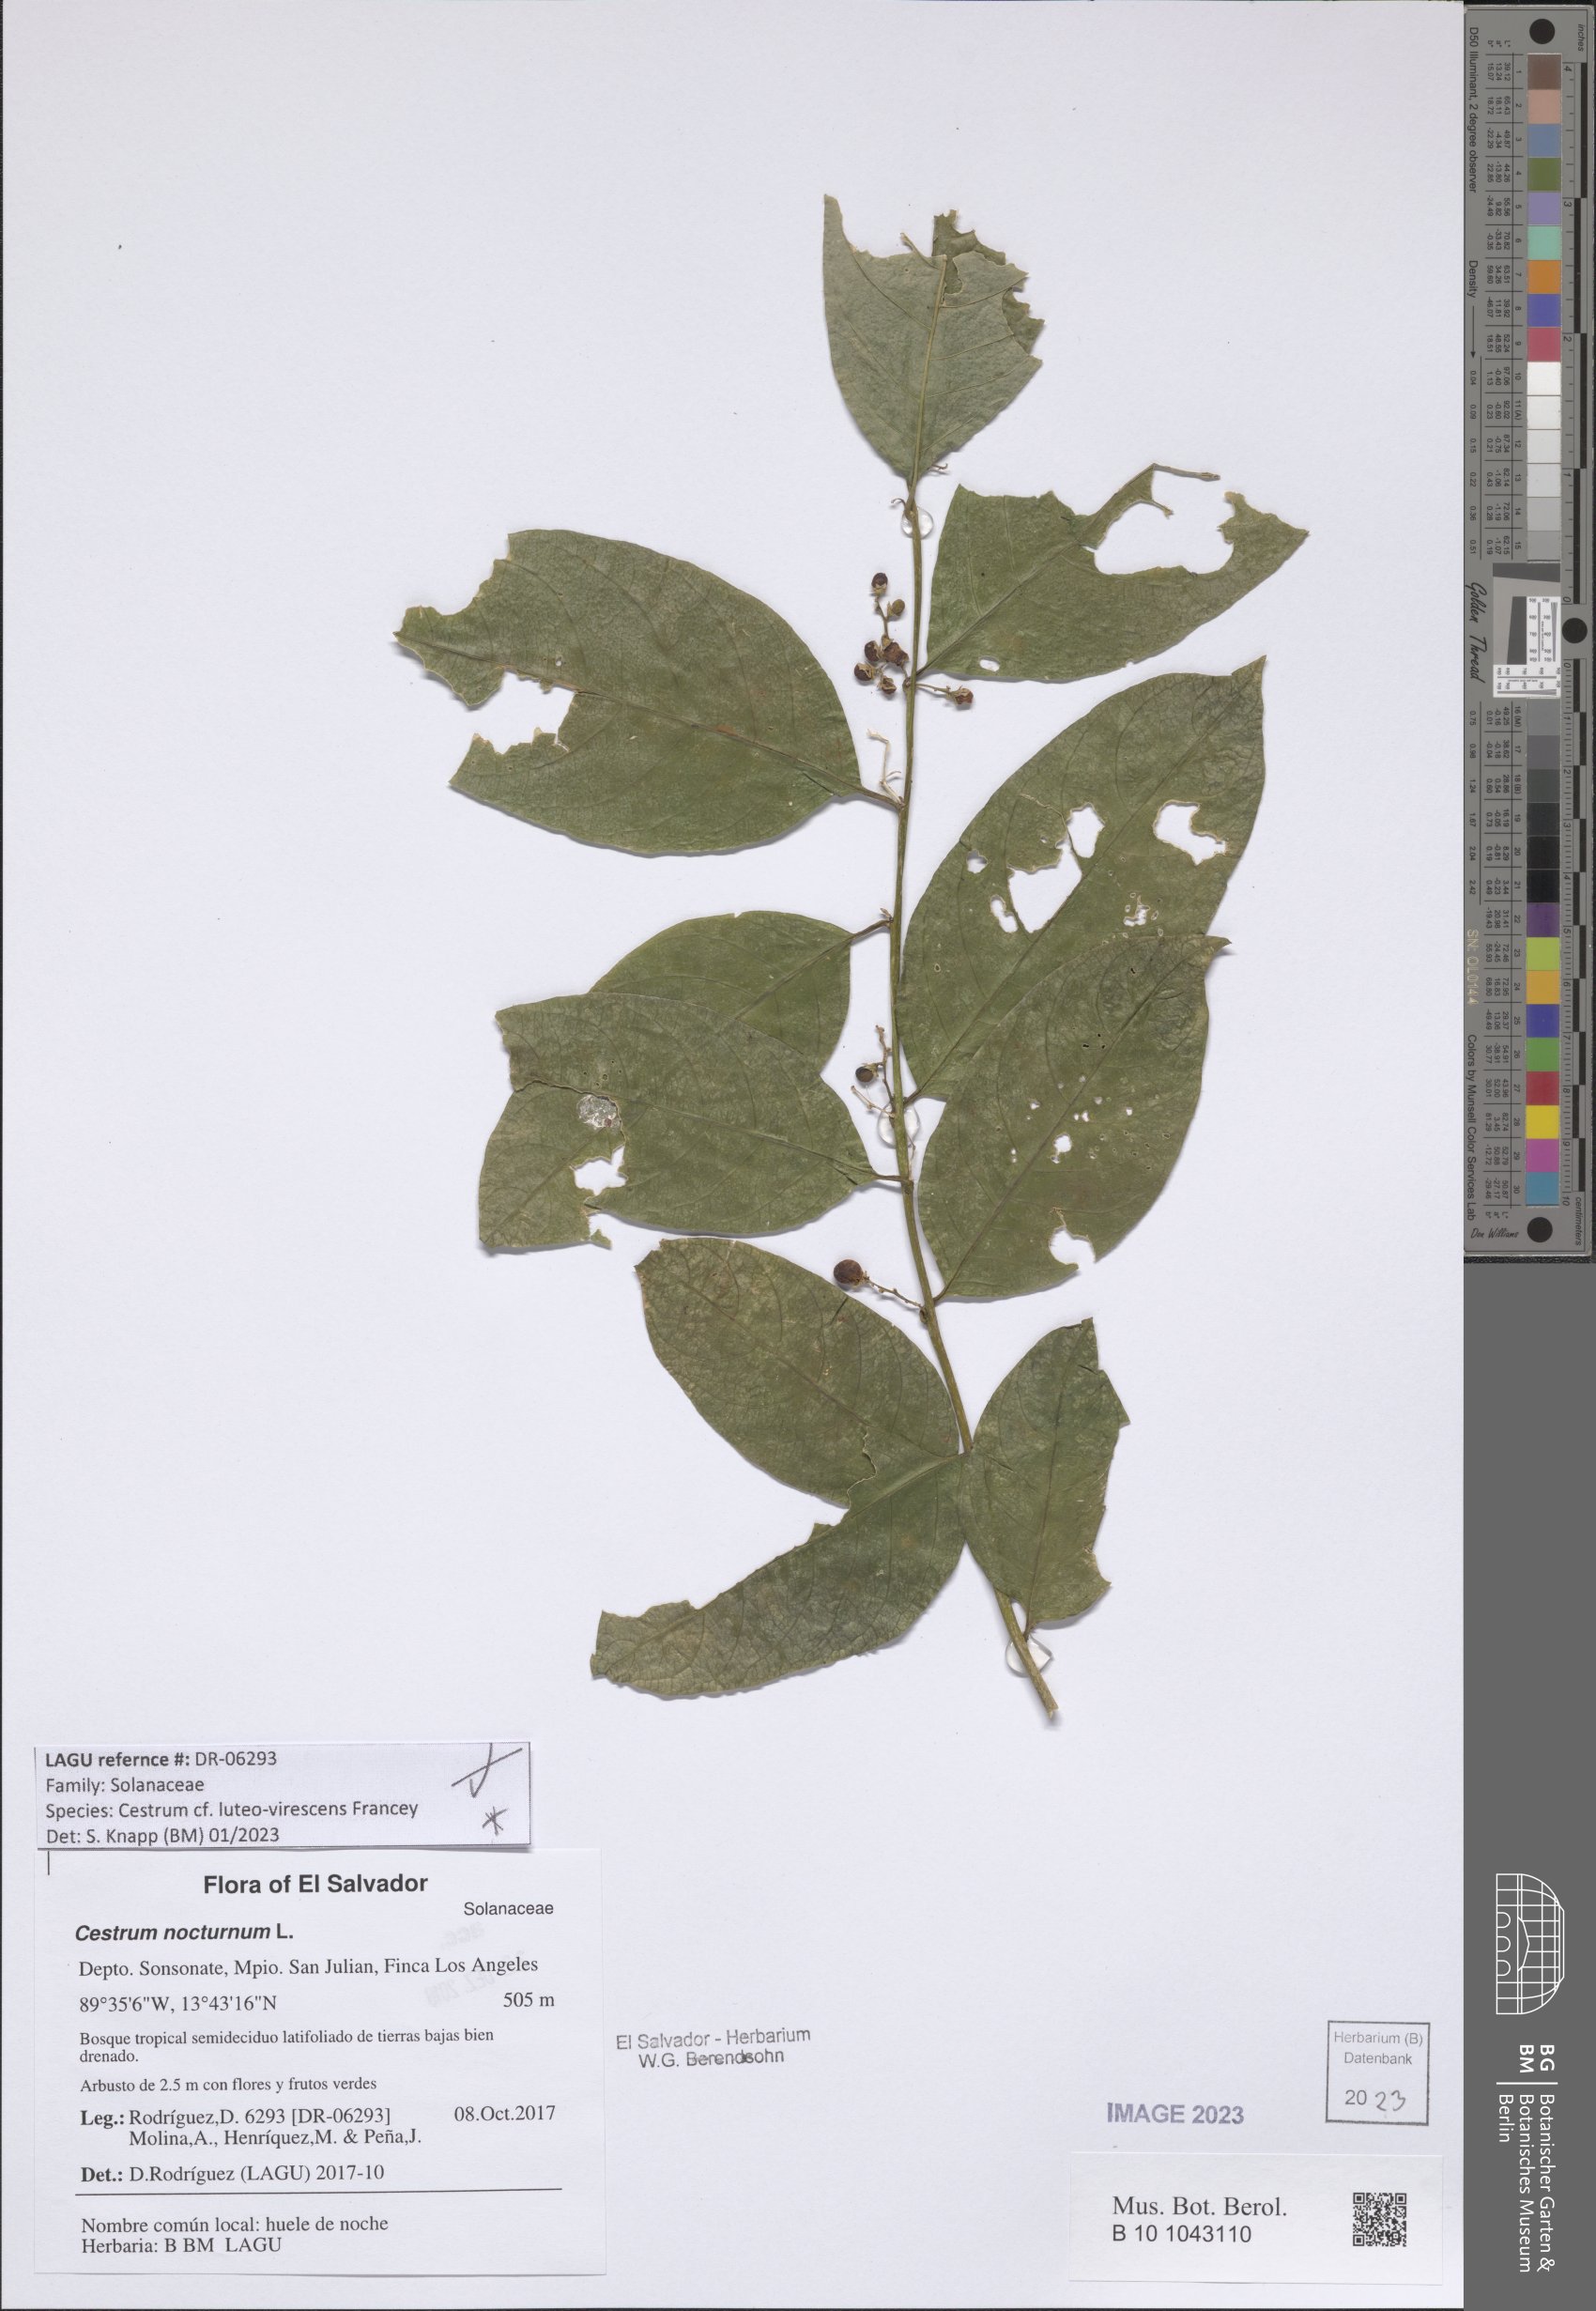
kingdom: Plantae
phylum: Tracheophyta
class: Magnoliopsida
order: Solanales
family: Solanaceae
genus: Cestrum
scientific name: Cestrum luteovirescens
